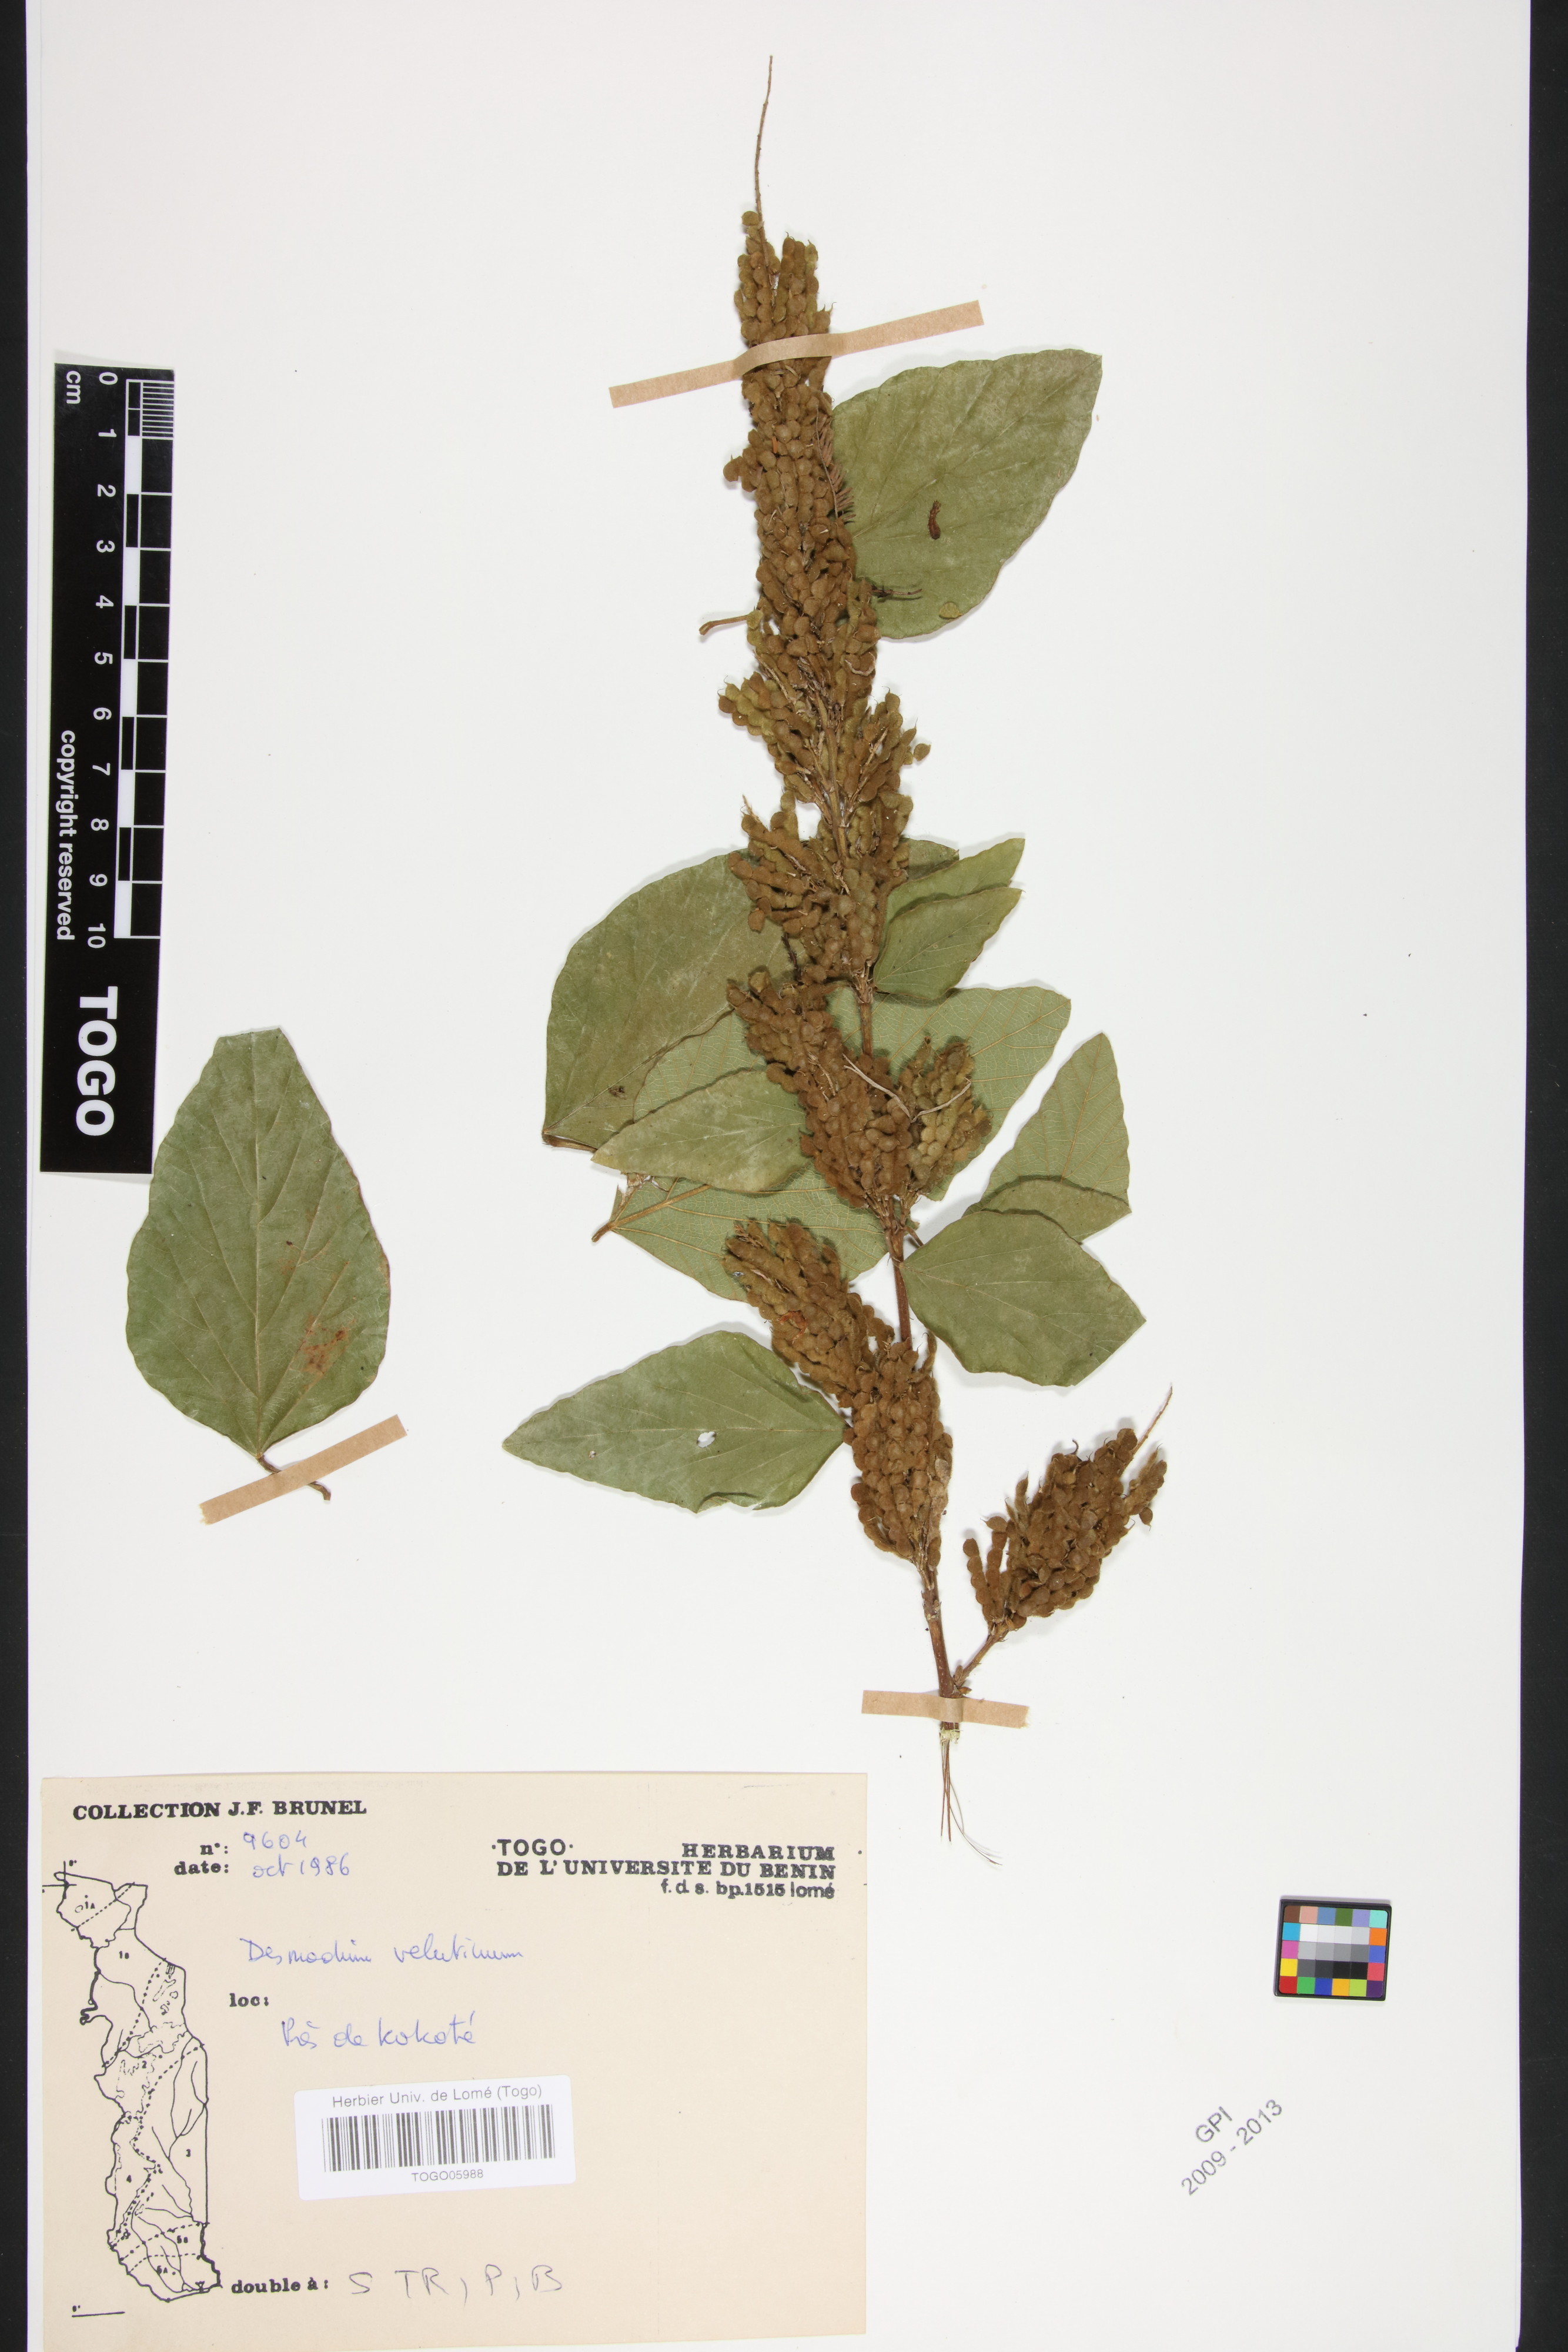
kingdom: Plantae
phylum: Tracheophyta
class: Magnoliopsida
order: Fabales
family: Fabaceae
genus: Polhillides
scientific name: Polhillides velutina
